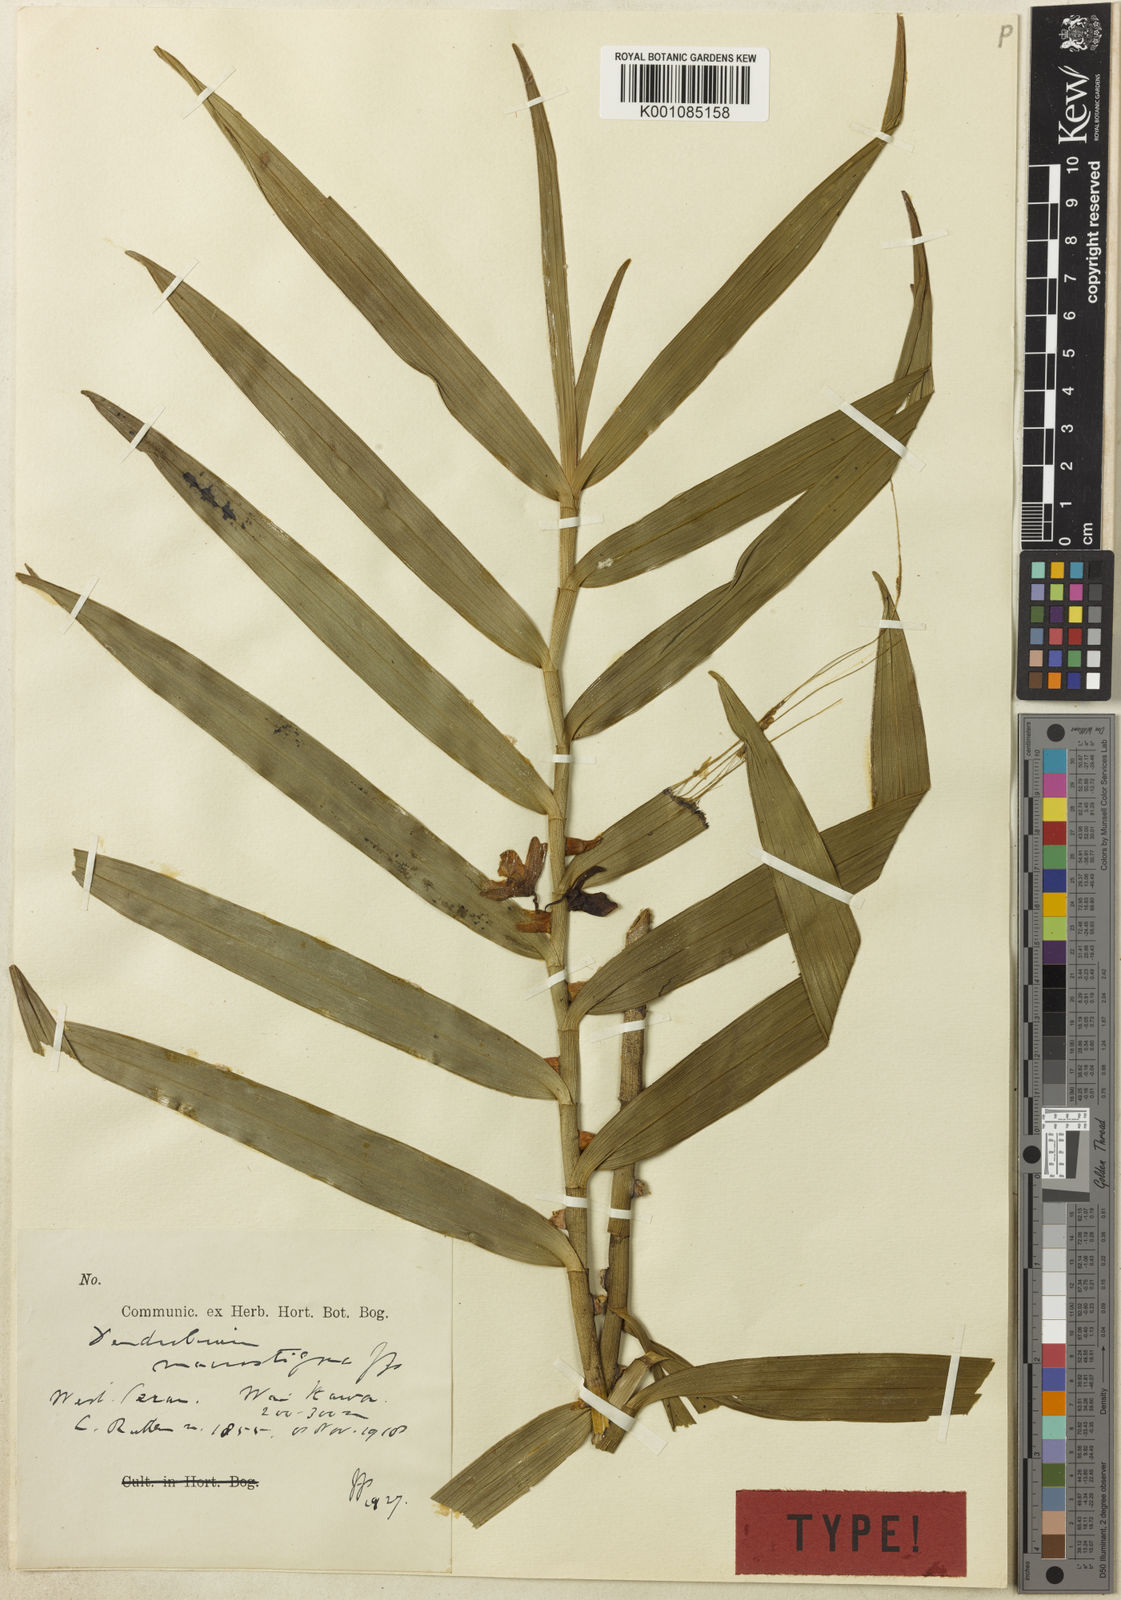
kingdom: Plantae
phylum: Tracheophyta
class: Liliopsida
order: Asparagales
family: Orchidaceae
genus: Dendrobium
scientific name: Dendrobium macrostigma
